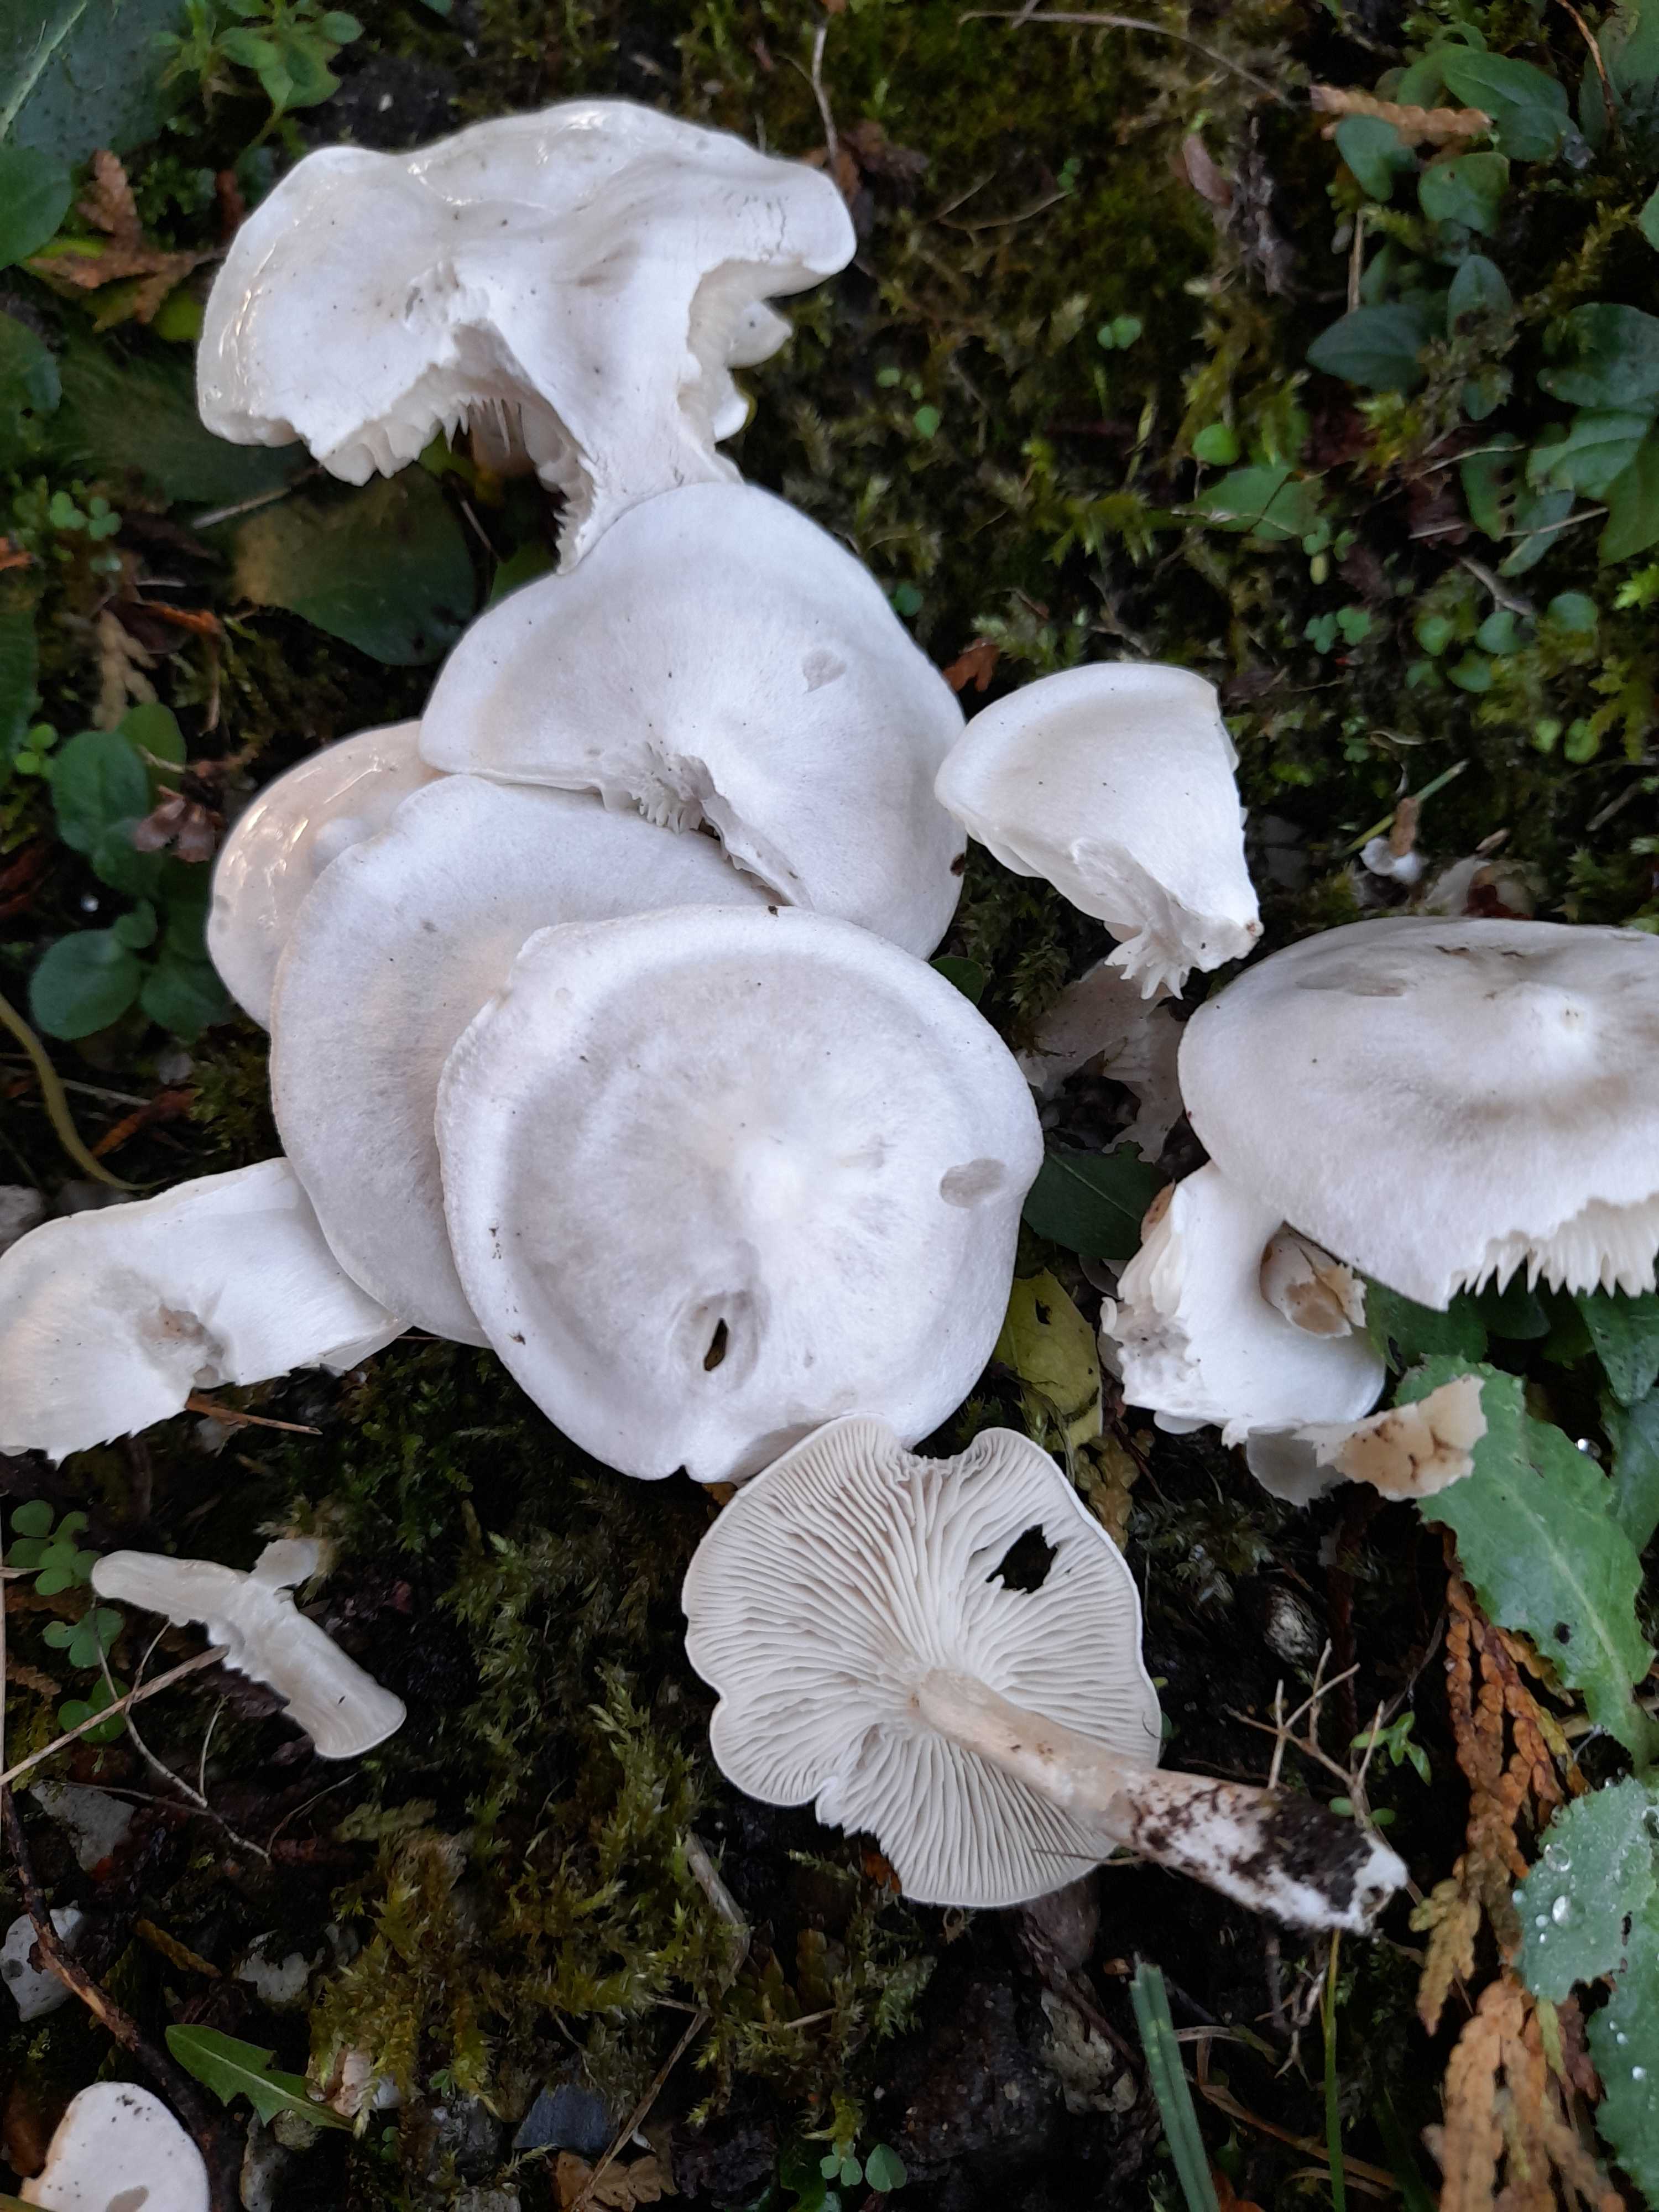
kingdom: Fungi
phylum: Basidiomycota
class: Agaricomycetes
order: Agaricales
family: Tricholomataceae
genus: Leucocybe
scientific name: Leucocybe connata
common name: knippe-tragthat
